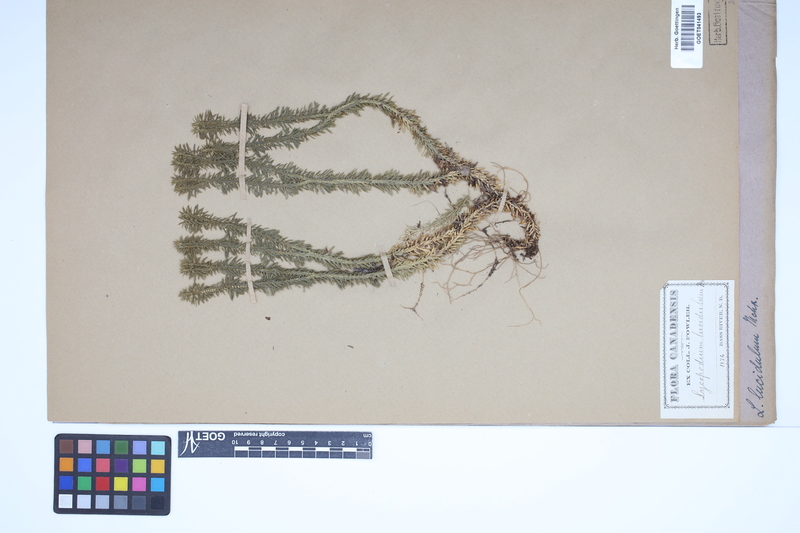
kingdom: Plantae
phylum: Tracheophyta
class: Lycopodiopsida
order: Lycopodiales
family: Lycopodiaceae
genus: Huperzia
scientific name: Huperzia lucidula
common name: Shining clubmoss
